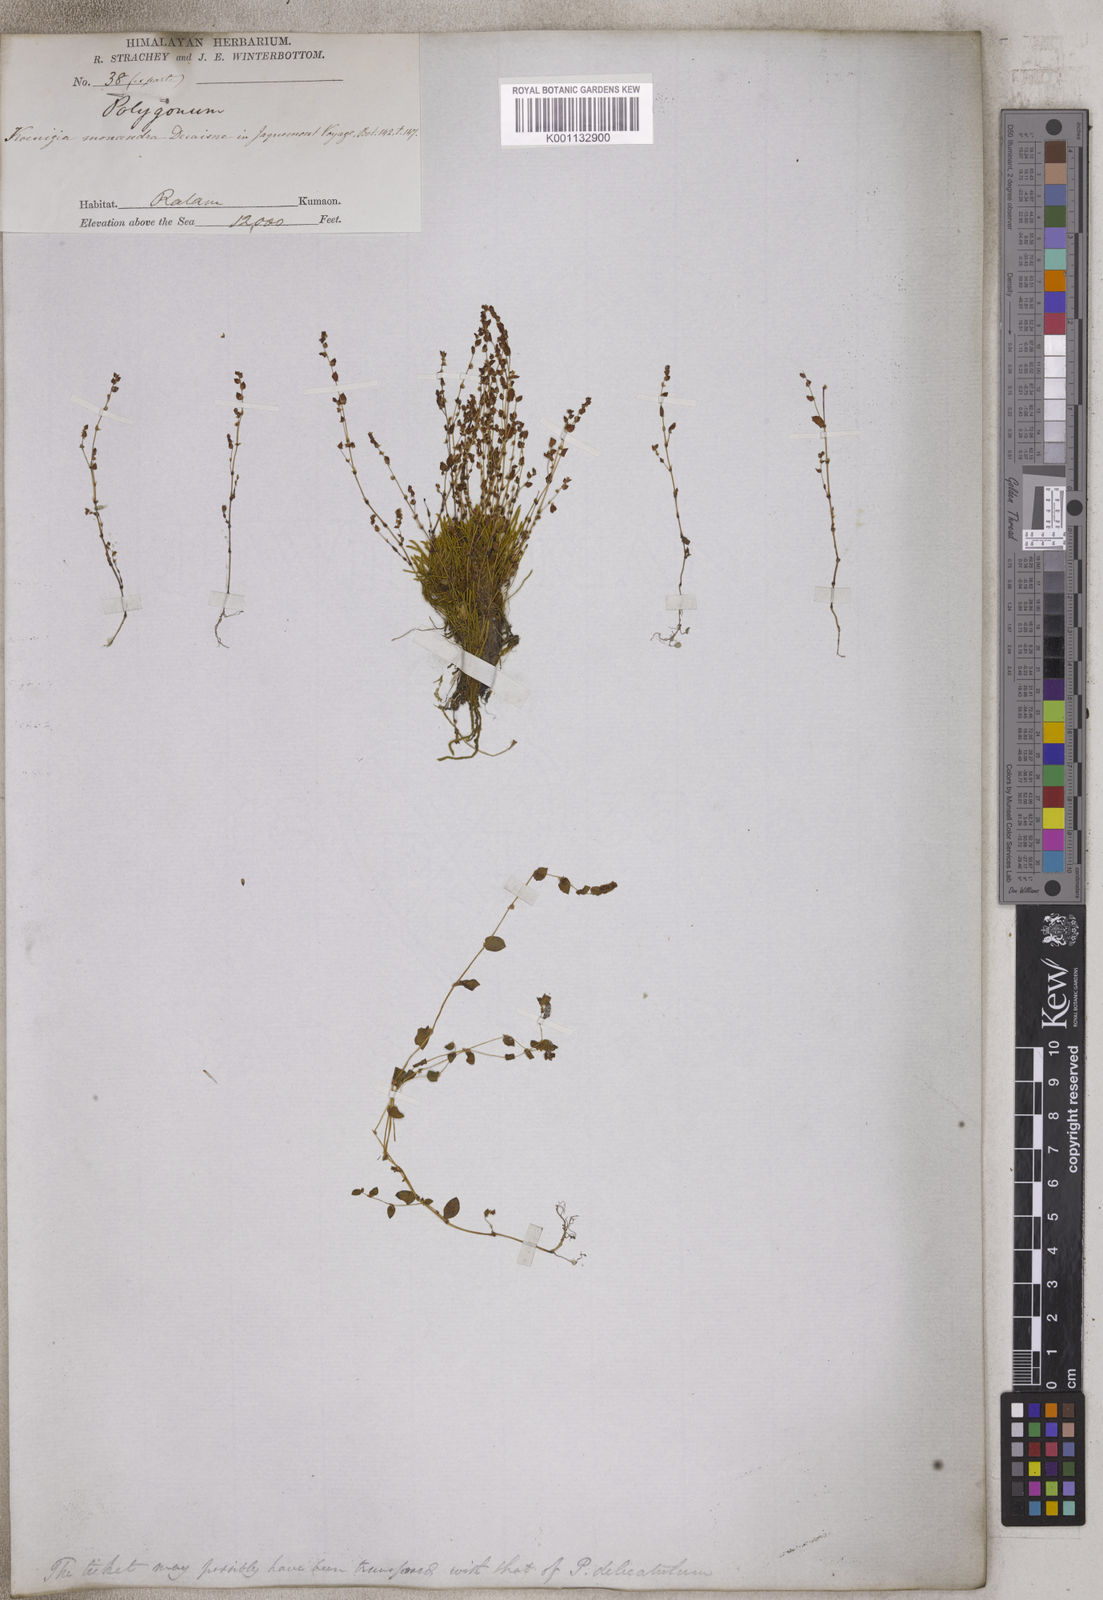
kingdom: Plantae
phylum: Tracheophyta
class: Magnoliopsida
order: Caryophyllales
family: Polygonaceae
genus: Koenigia
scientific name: Koenigia delicatula
